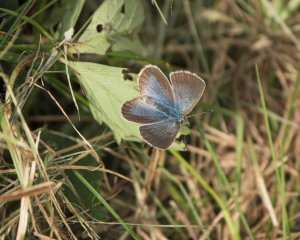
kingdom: Animalia
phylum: Arthropoda
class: Insecta
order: Lepidoptera
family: Lycaenidae
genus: Polyommatus
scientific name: Polyommatus icarus
